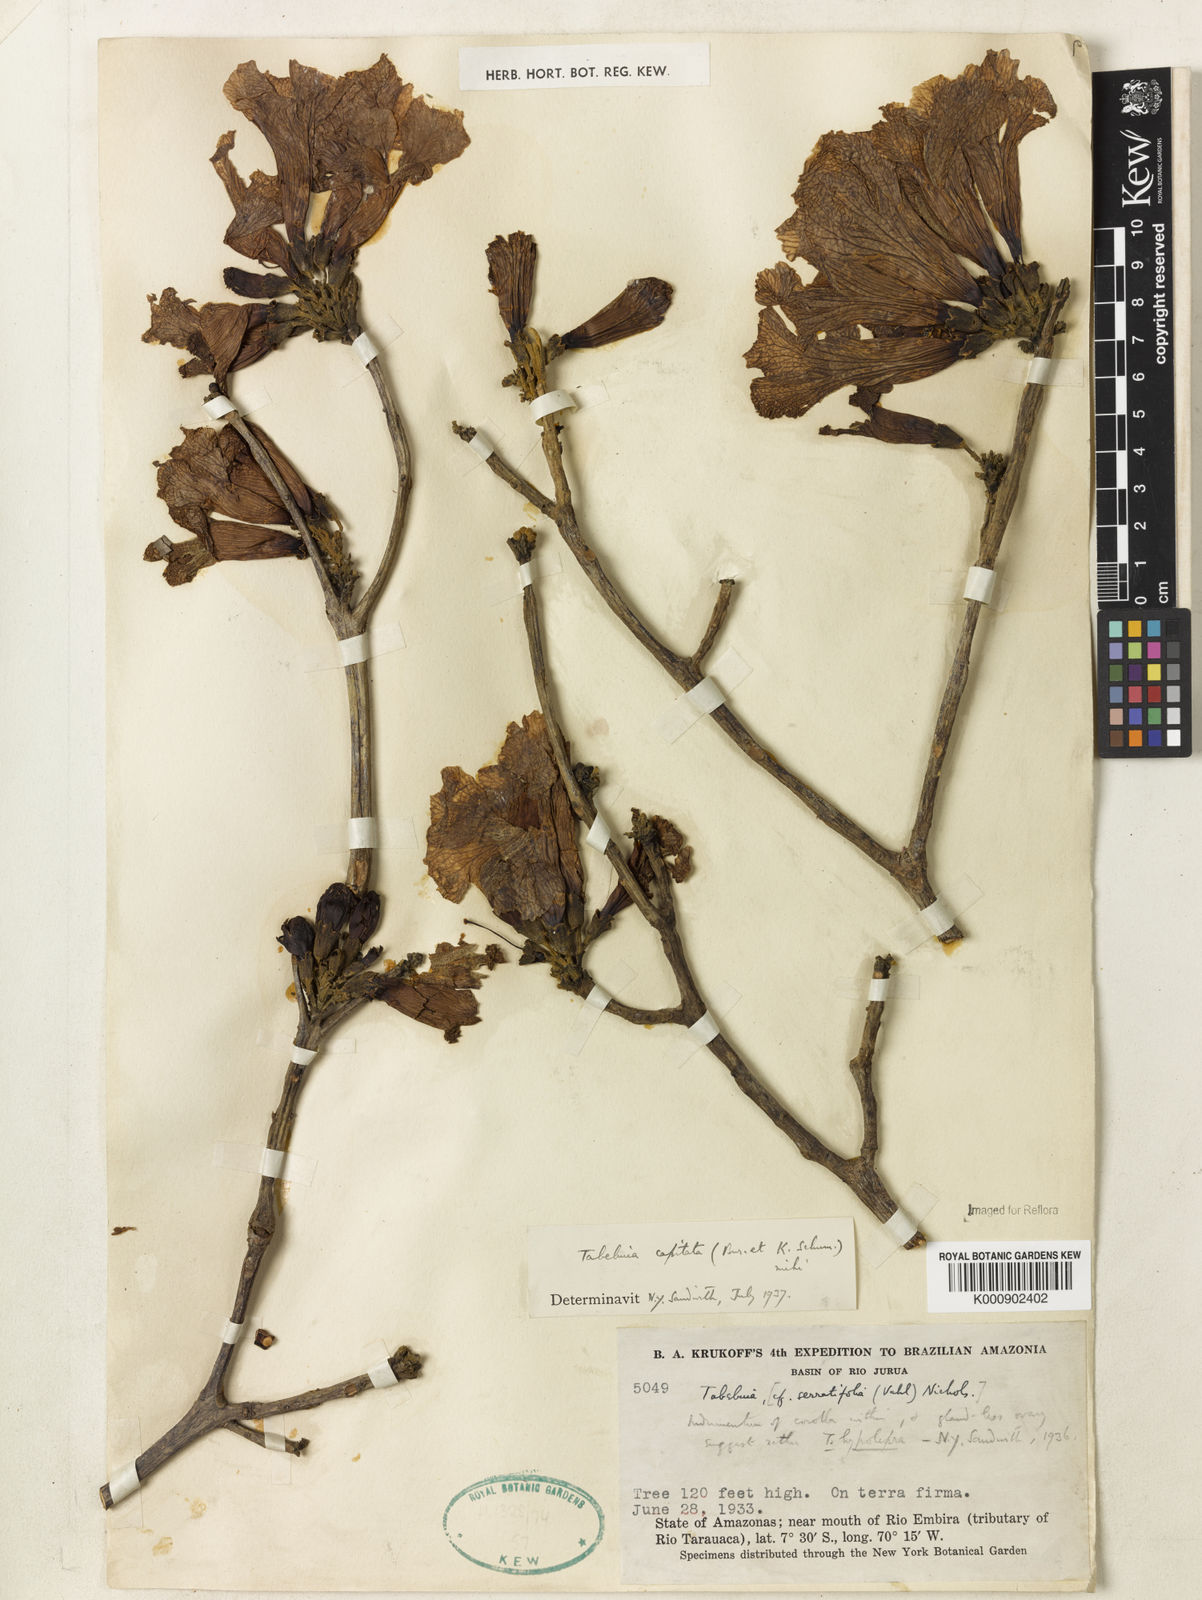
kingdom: Plantae
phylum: Tracheophyta
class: Magnoliopsida
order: Lamiales
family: Bignoniaceae
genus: Handroanthus
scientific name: Handroanthus capitatus
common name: Trumpet trees
